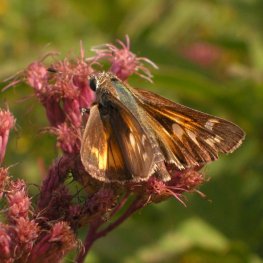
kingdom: Animalia
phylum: Arthropoda
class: Insecta
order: Lepidoptera
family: Hesperiidae
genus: Atalopedes
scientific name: Atalopedes campestris
